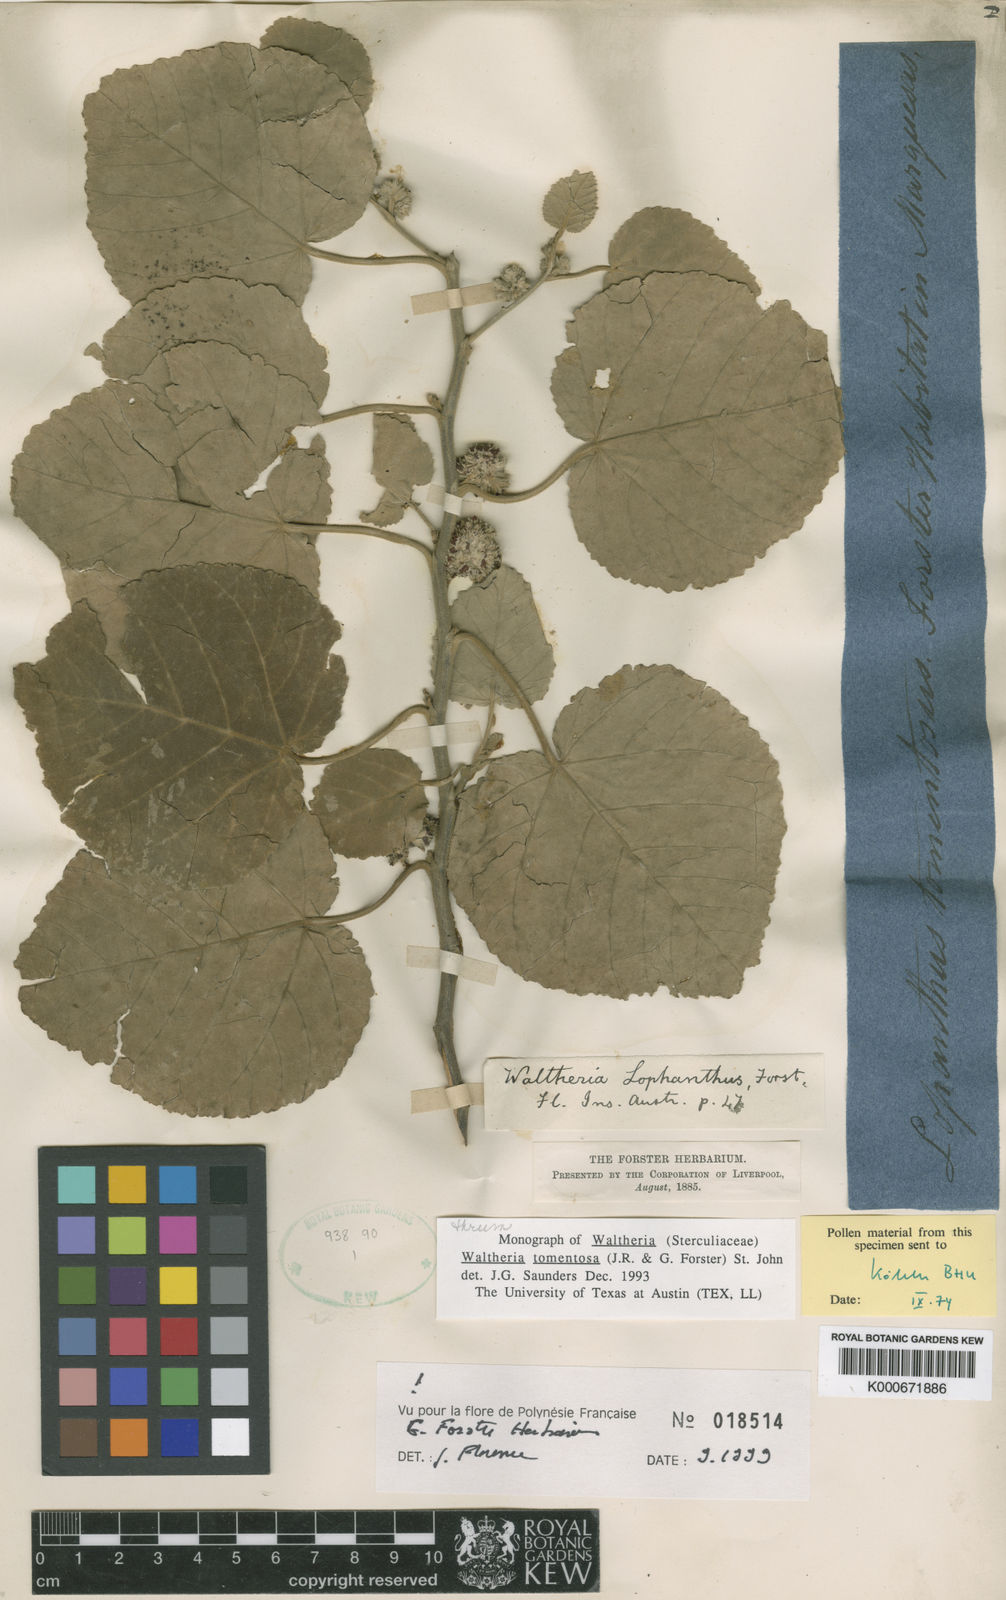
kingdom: Plantae
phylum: Tracheophyta
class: Magnoliopsida
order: Malvales
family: Malvaceae
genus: Waltheria
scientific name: Waltheria tomentosa
